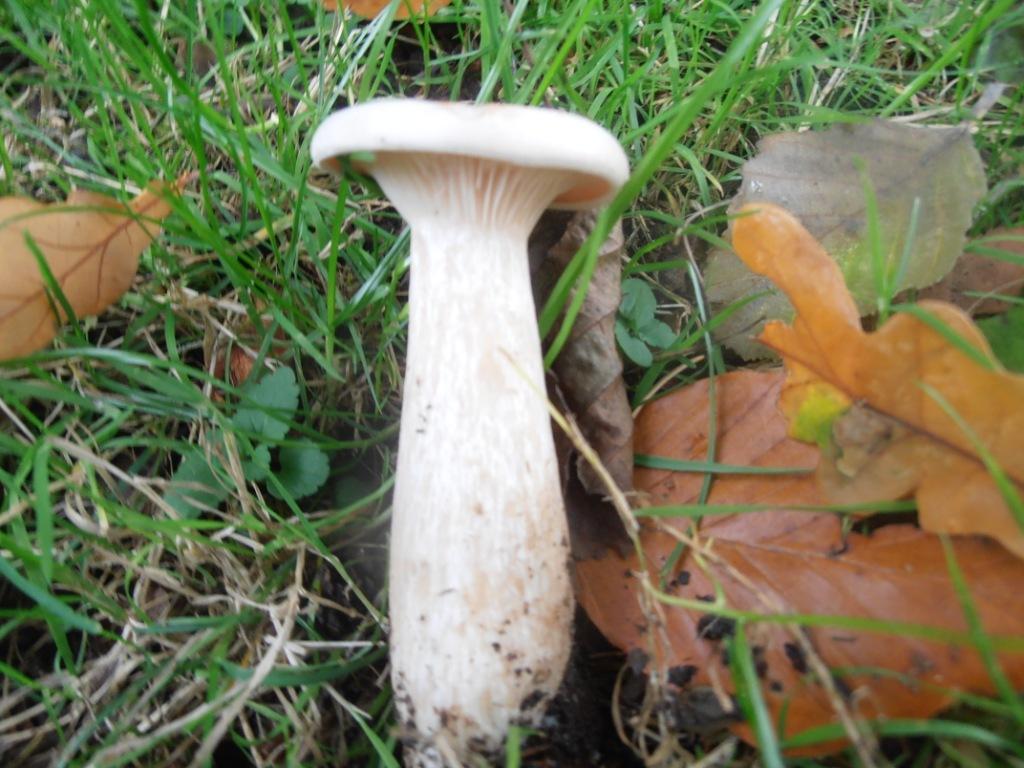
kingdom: Fungi
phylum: Basidiomycota
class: Agaricomycetes
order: Agaricales
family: Tricholomataceae
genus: Infundibulicybe
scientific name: Infundibulicybe geotropa
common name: stor tragthat
